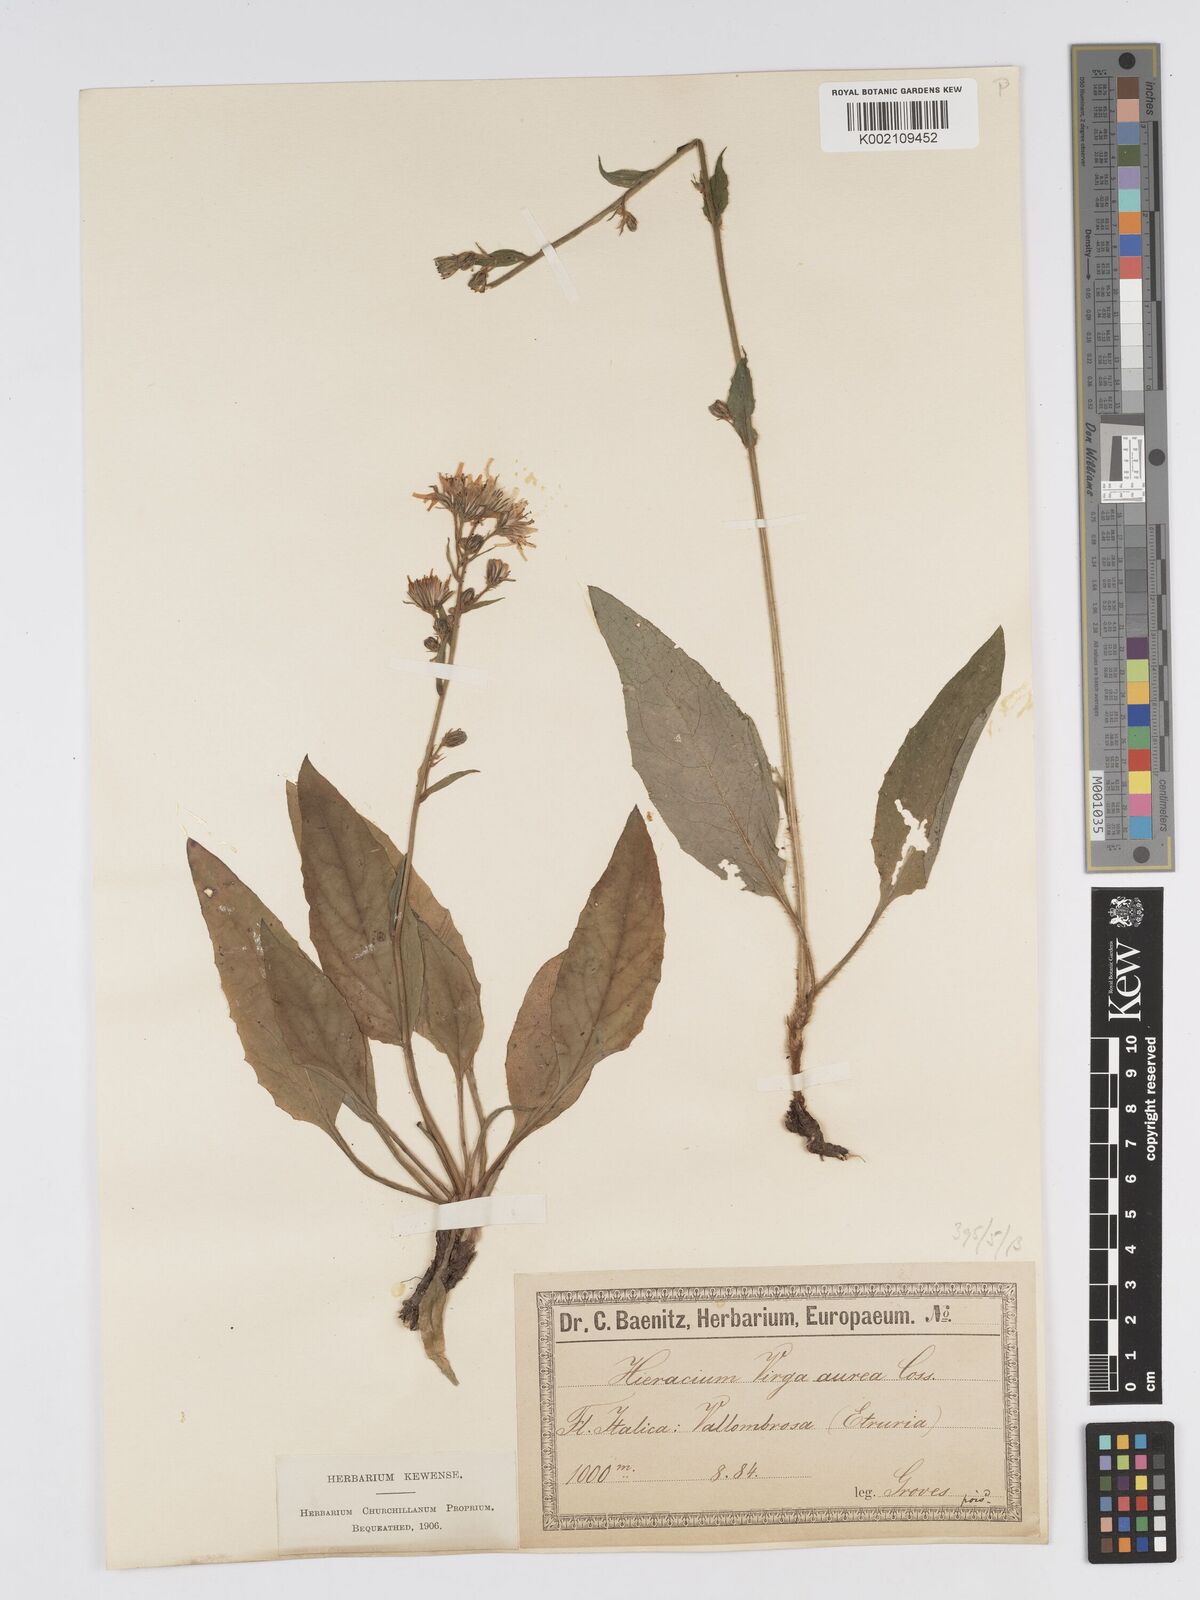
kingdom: Plantae
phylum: Tracheophyta
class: Magnoliopsida
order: Asterales
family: Asteraceae
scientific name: Asteraceae
